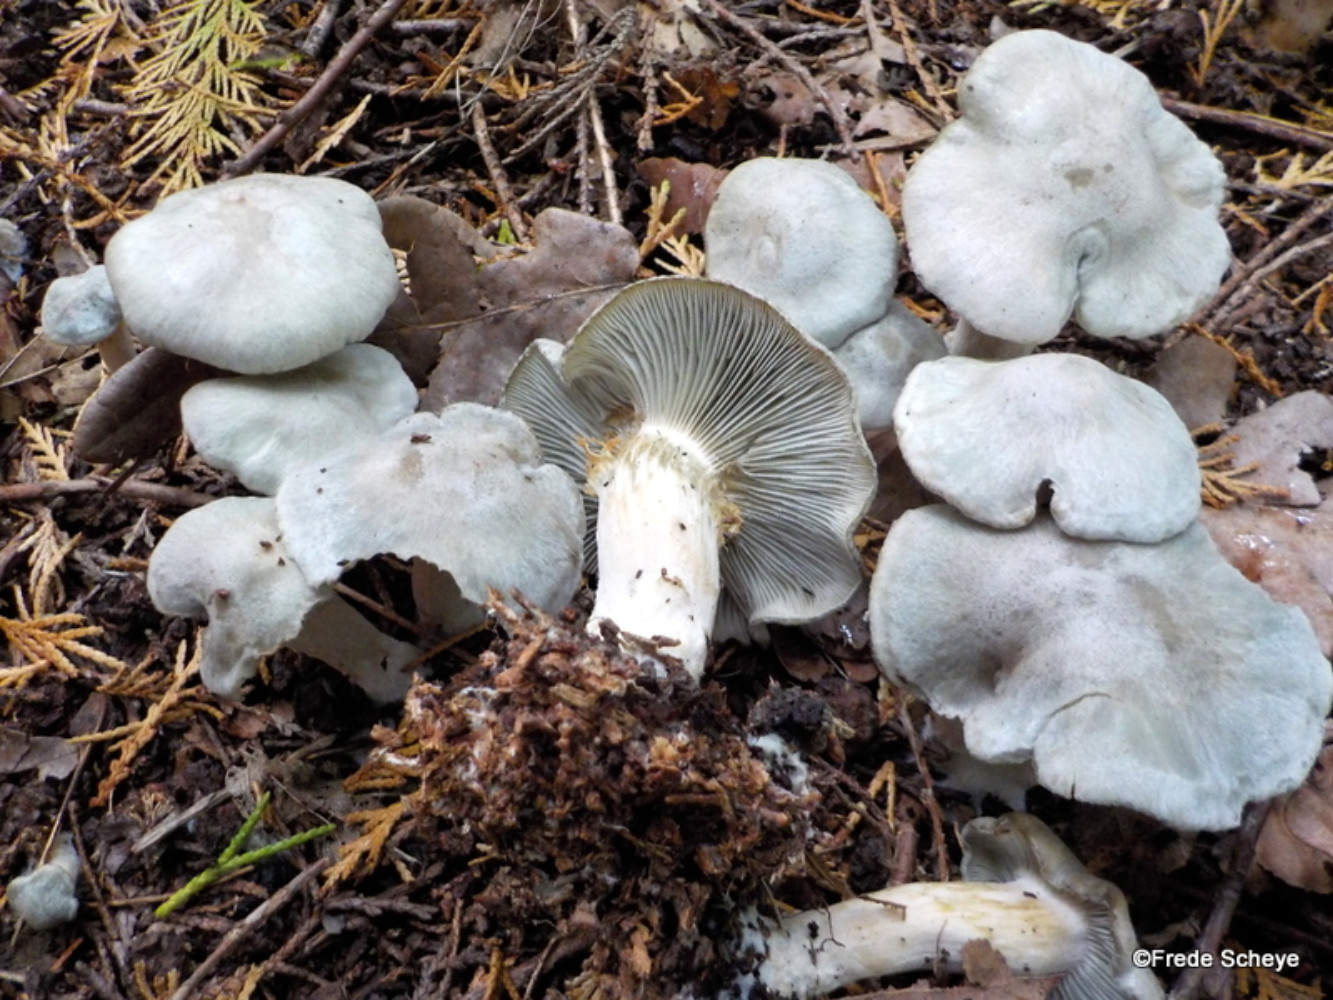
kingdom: Fungi
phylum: Basidiomycota
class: Agaricomycetes
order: Agaricales
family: Tricholomataceae
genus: Clitocybe
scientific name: Clitocybe odora
